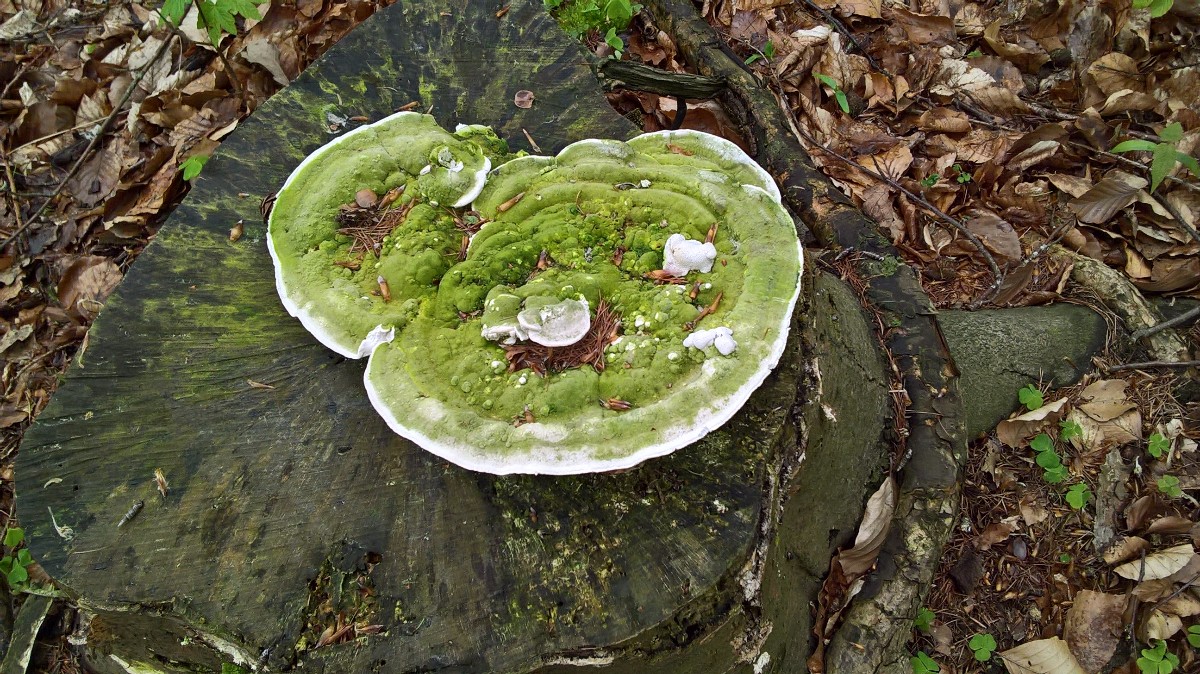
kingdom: Fungi
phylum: Basidiomycota
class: Agaricomycetes
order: Polyporales
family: Polyporaceae
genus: Trametes
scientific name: Trametes gibbosa
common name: puklet læderporesvamp
